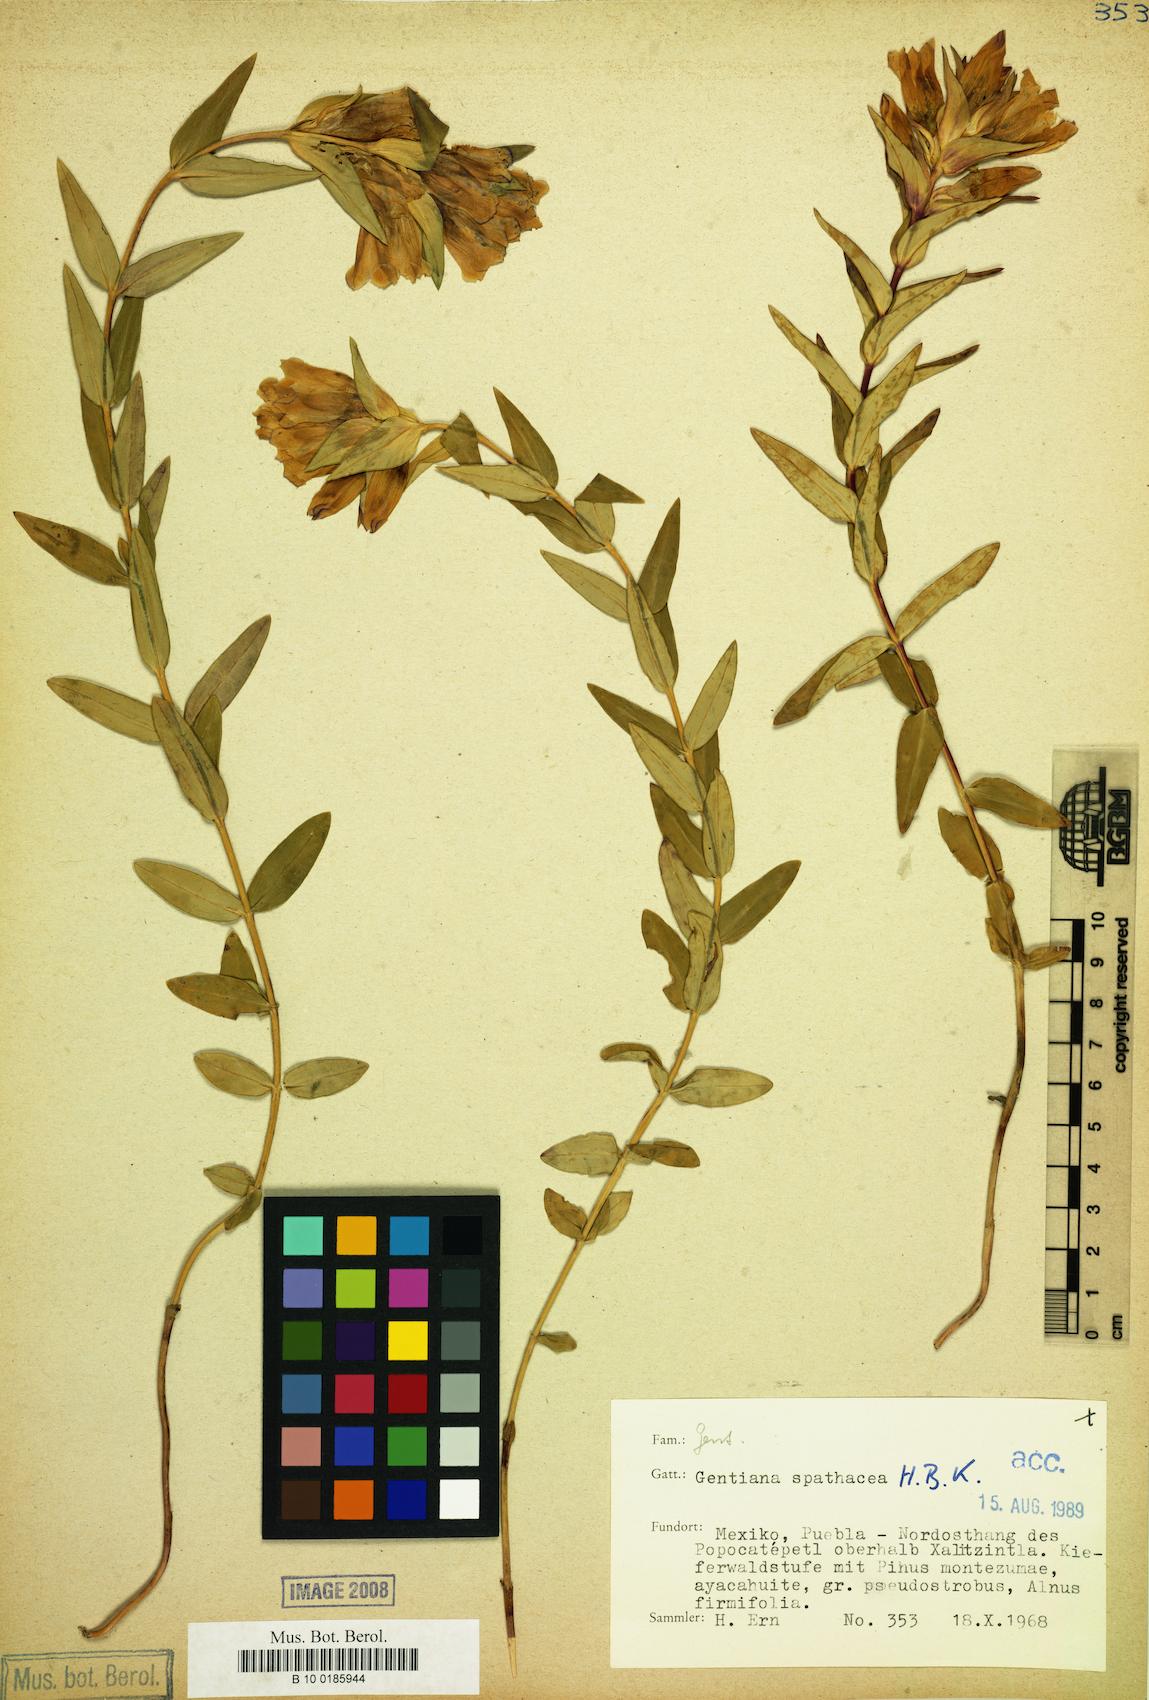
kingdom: Plantae
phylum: Tracheophyta
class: Magnoliopsida
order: Gentianales
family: Gentianaceae
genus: Gentiana
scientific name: Gentiana spathacea
